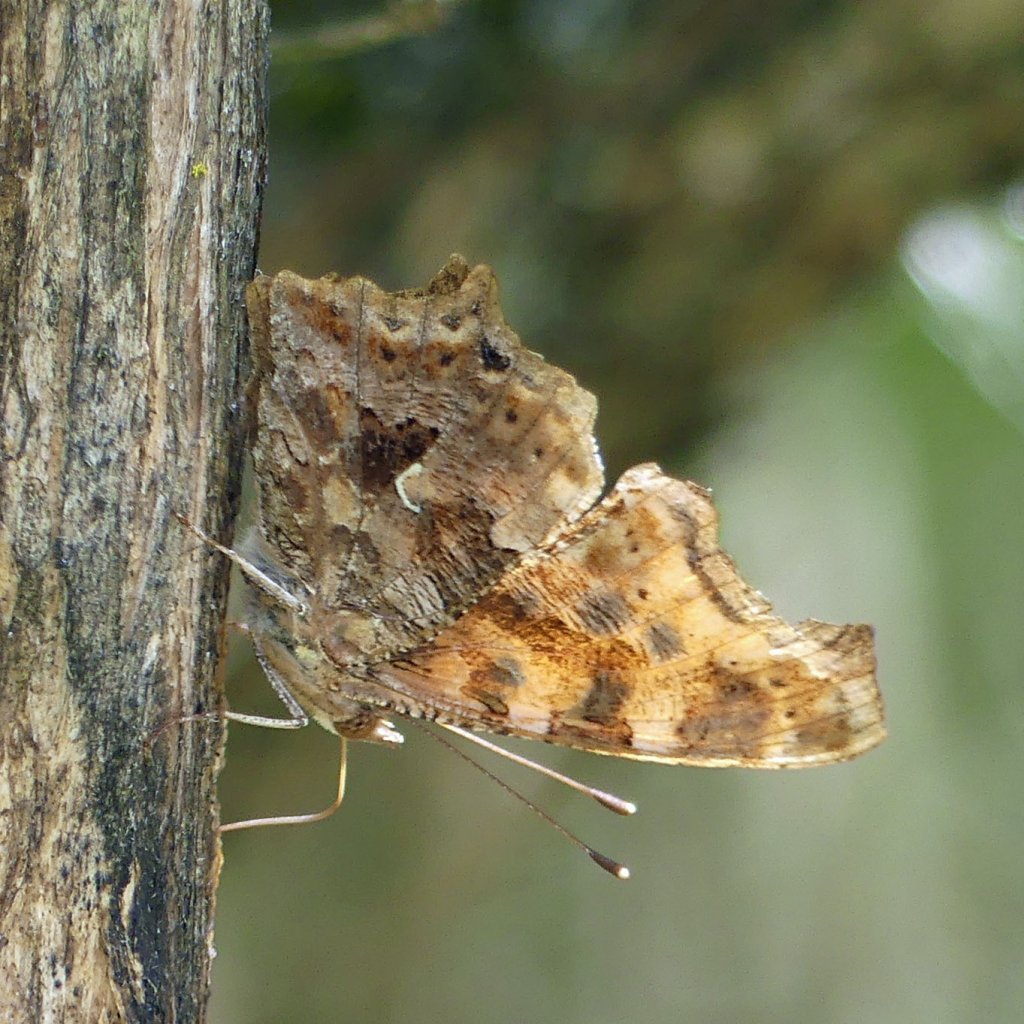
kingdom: Animalia
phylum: Arthropoda
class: Insecta
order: Lepidoptera
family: Nymphalidae
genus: Polygonia
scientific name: Polygonia comma
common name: Eastern Comma
